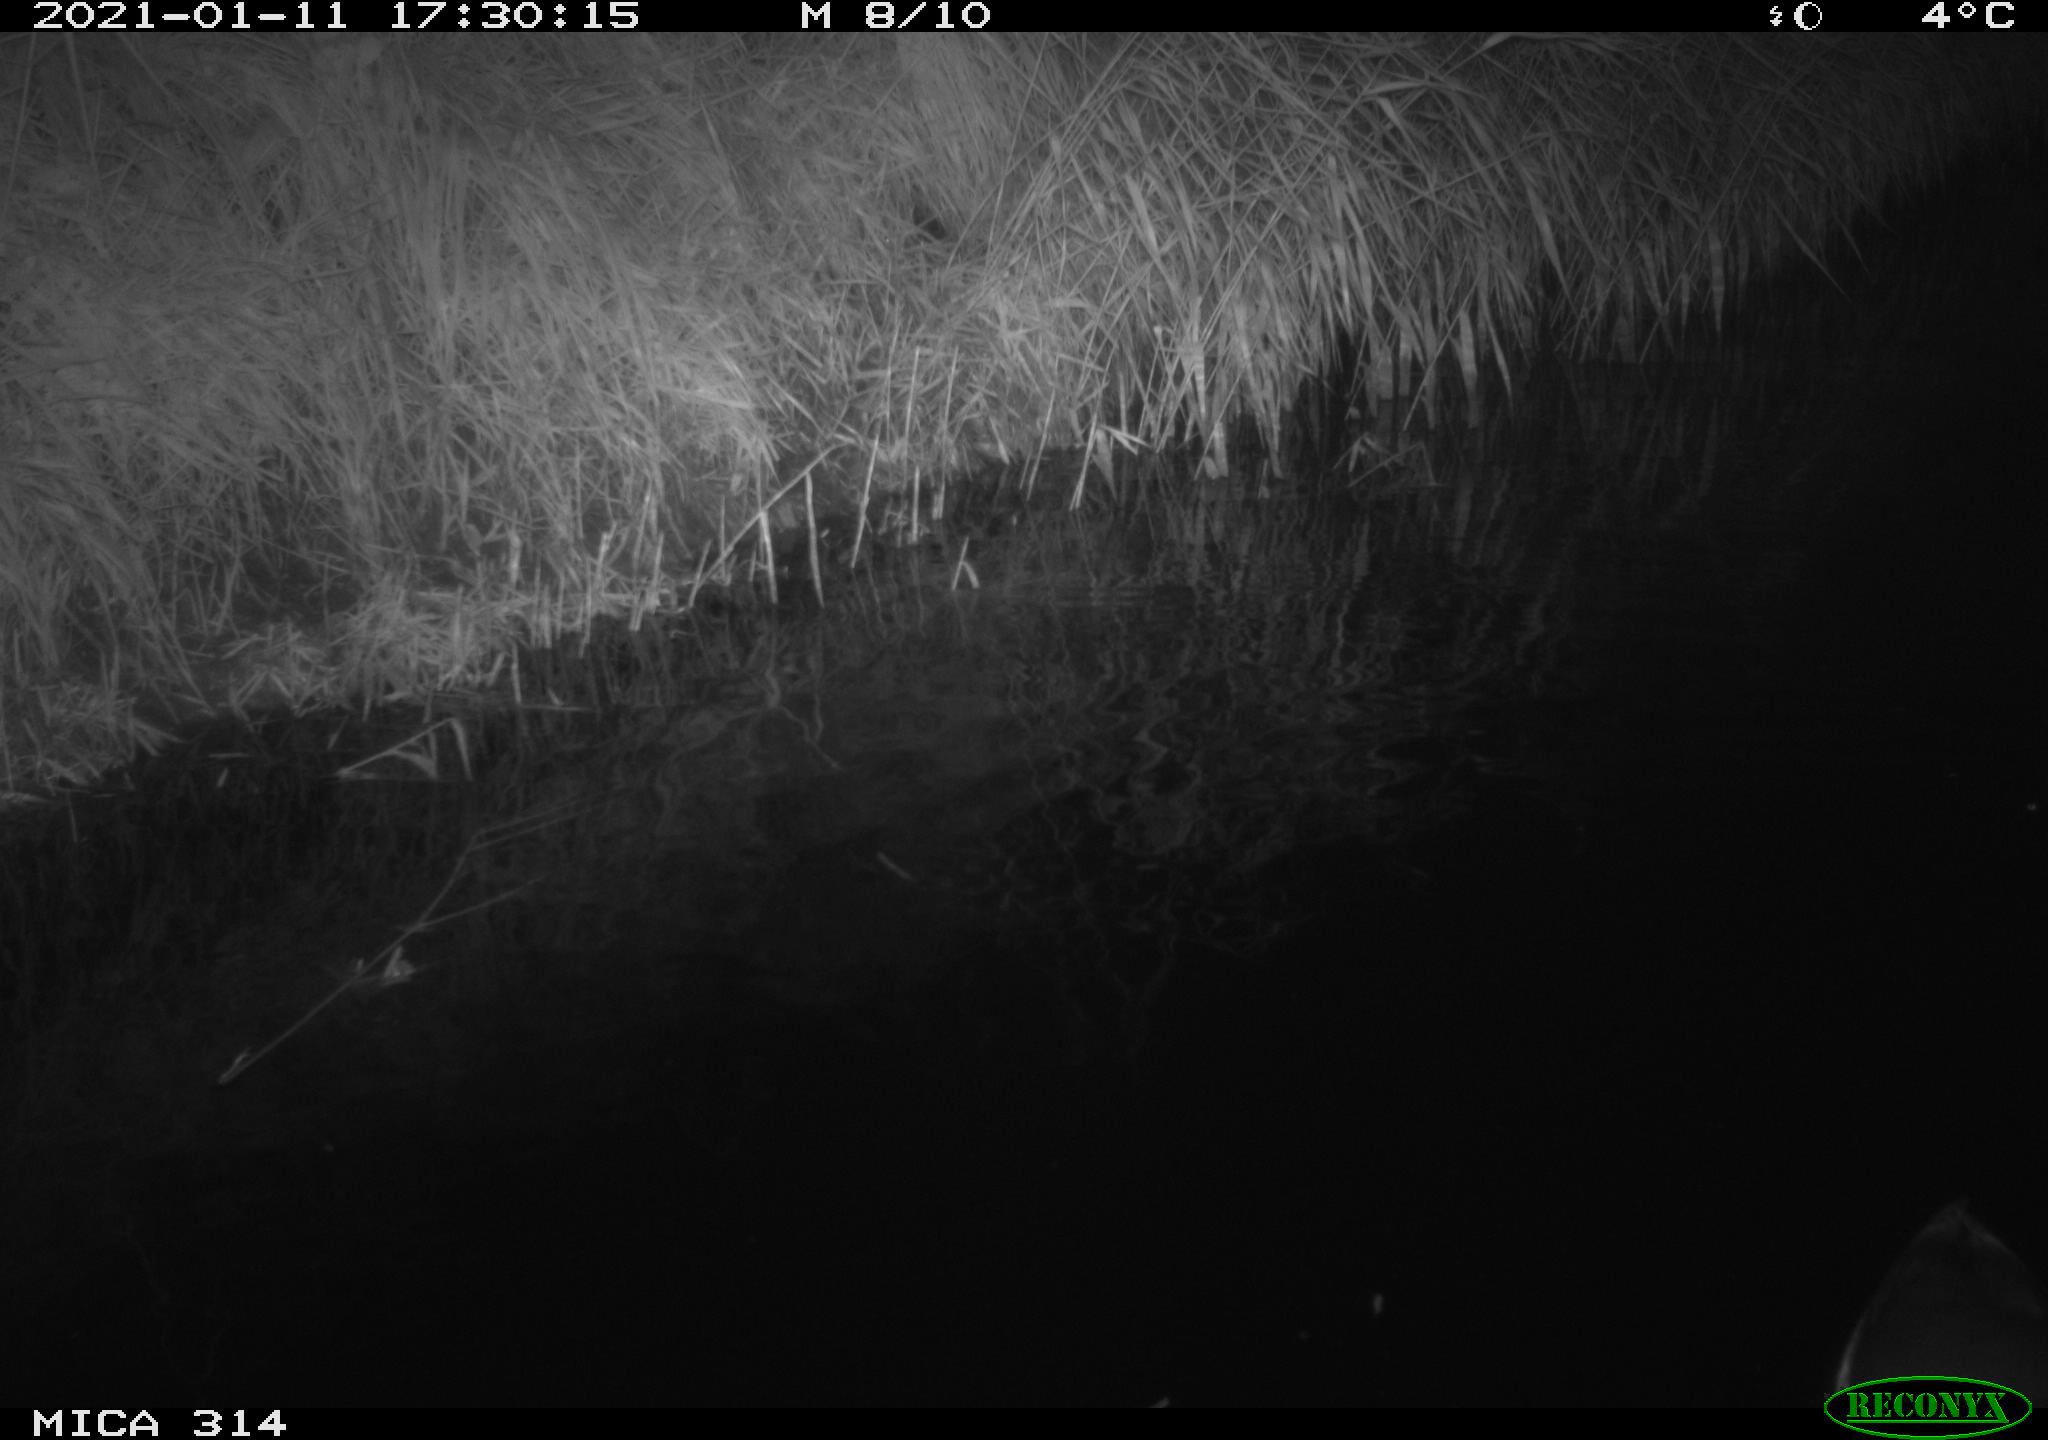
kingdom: Animalia
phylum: Chordata
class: Aves
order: Gruiformes
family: Rallidae
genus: Gallinula
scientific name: Gallinula chloropus
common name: Common moorhen
